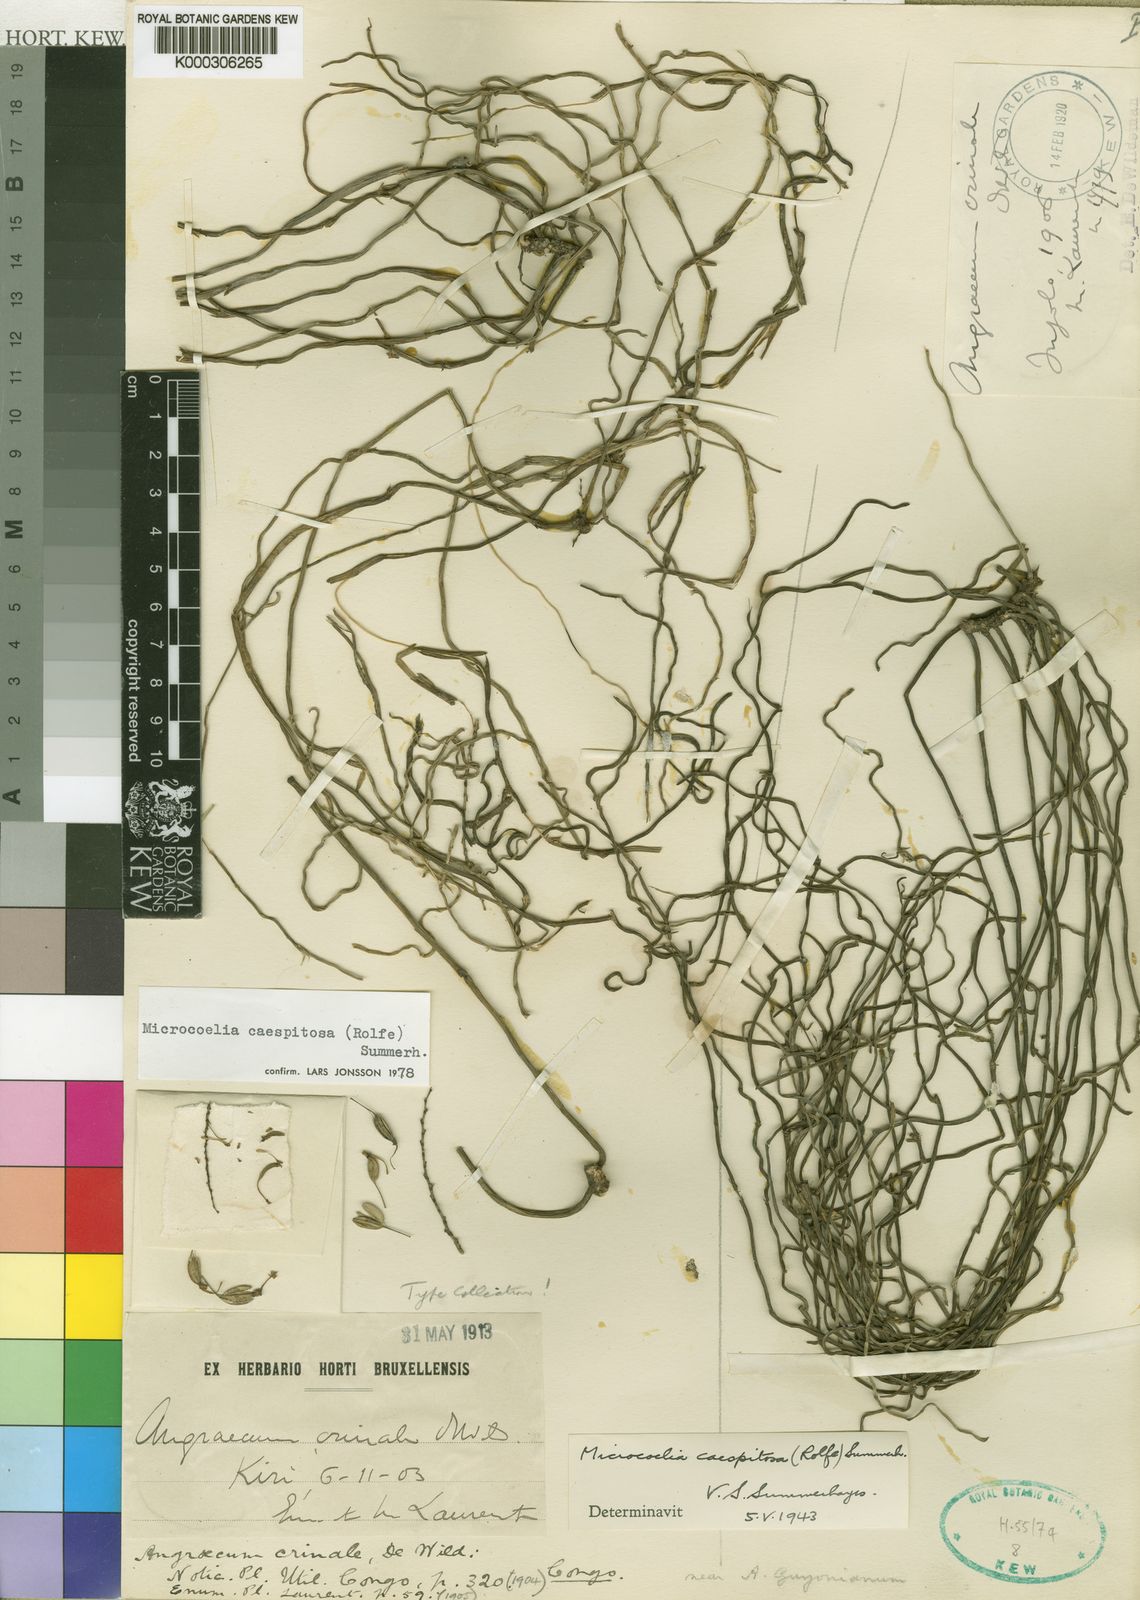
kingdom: Plantae
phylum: Tracheophyta
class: Liliopsida
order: Asparagales
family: Orchidaceae
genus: Microcoelia
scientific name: Microcoelia caespitosa
